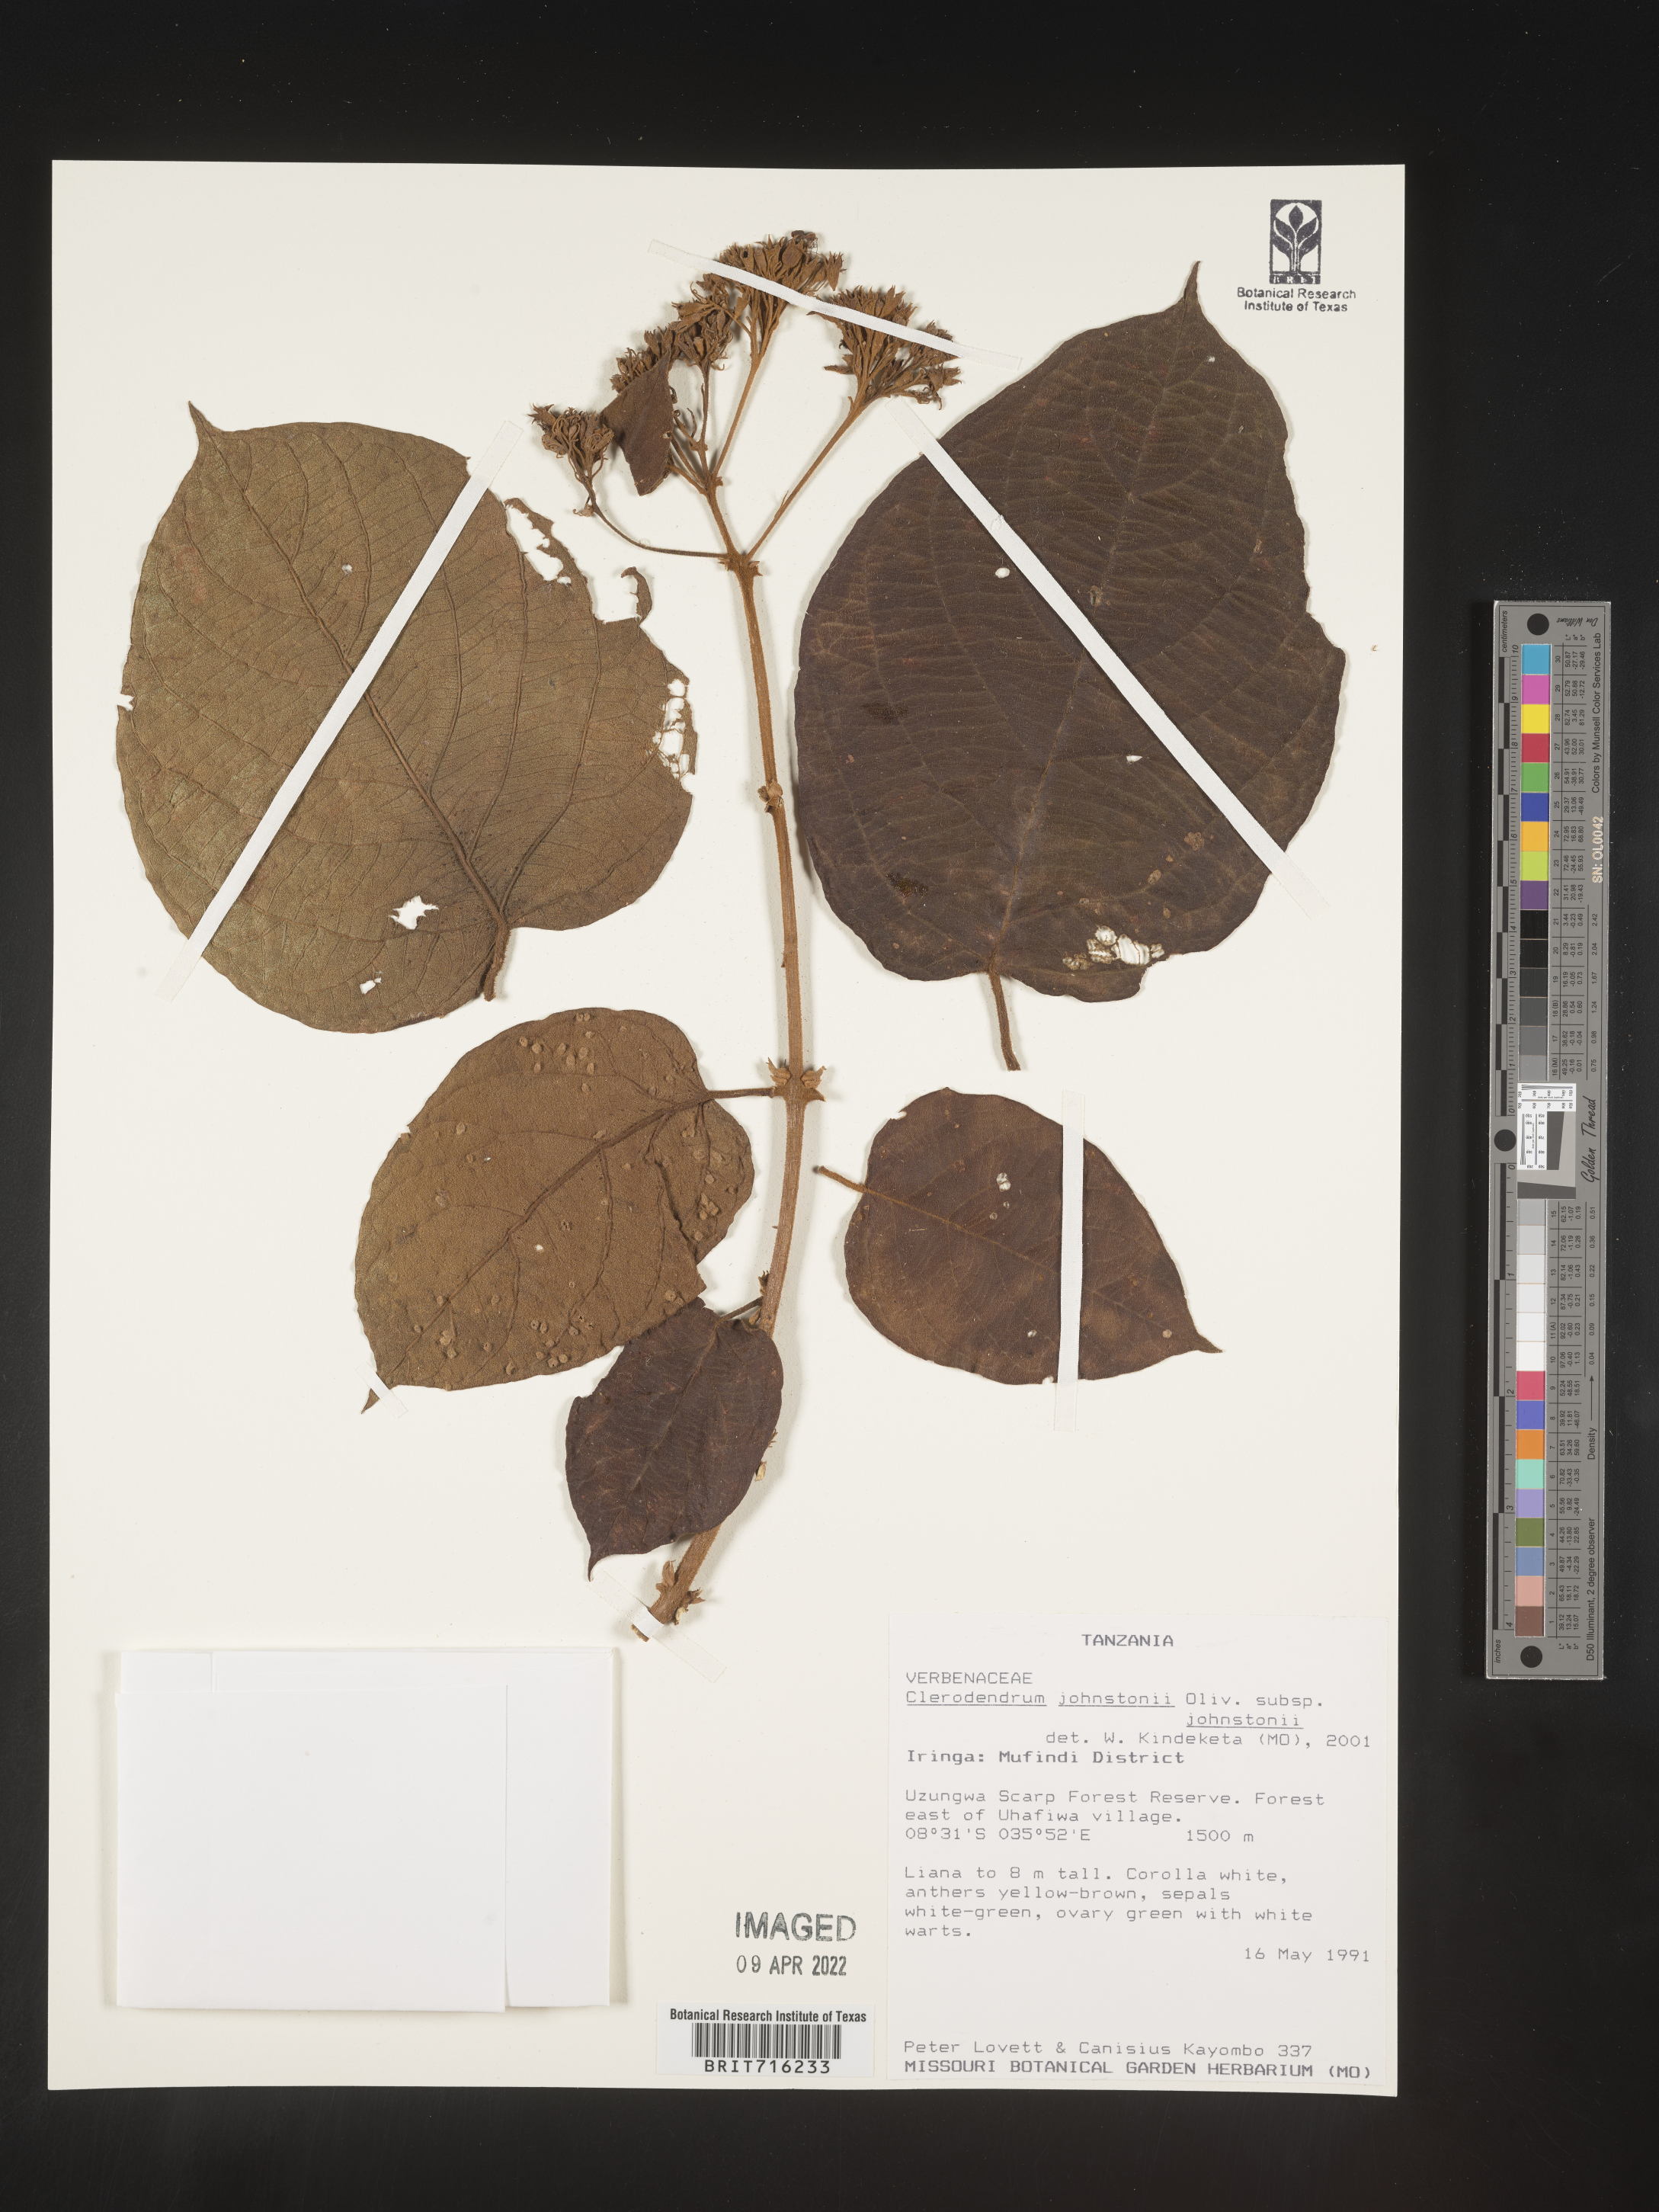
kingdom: Plantae
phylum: Tracheophyta
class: Magnoliopsida
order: Lamiales
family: Lamiaceae
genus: Clerodendrum
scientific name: Clerodendrum
